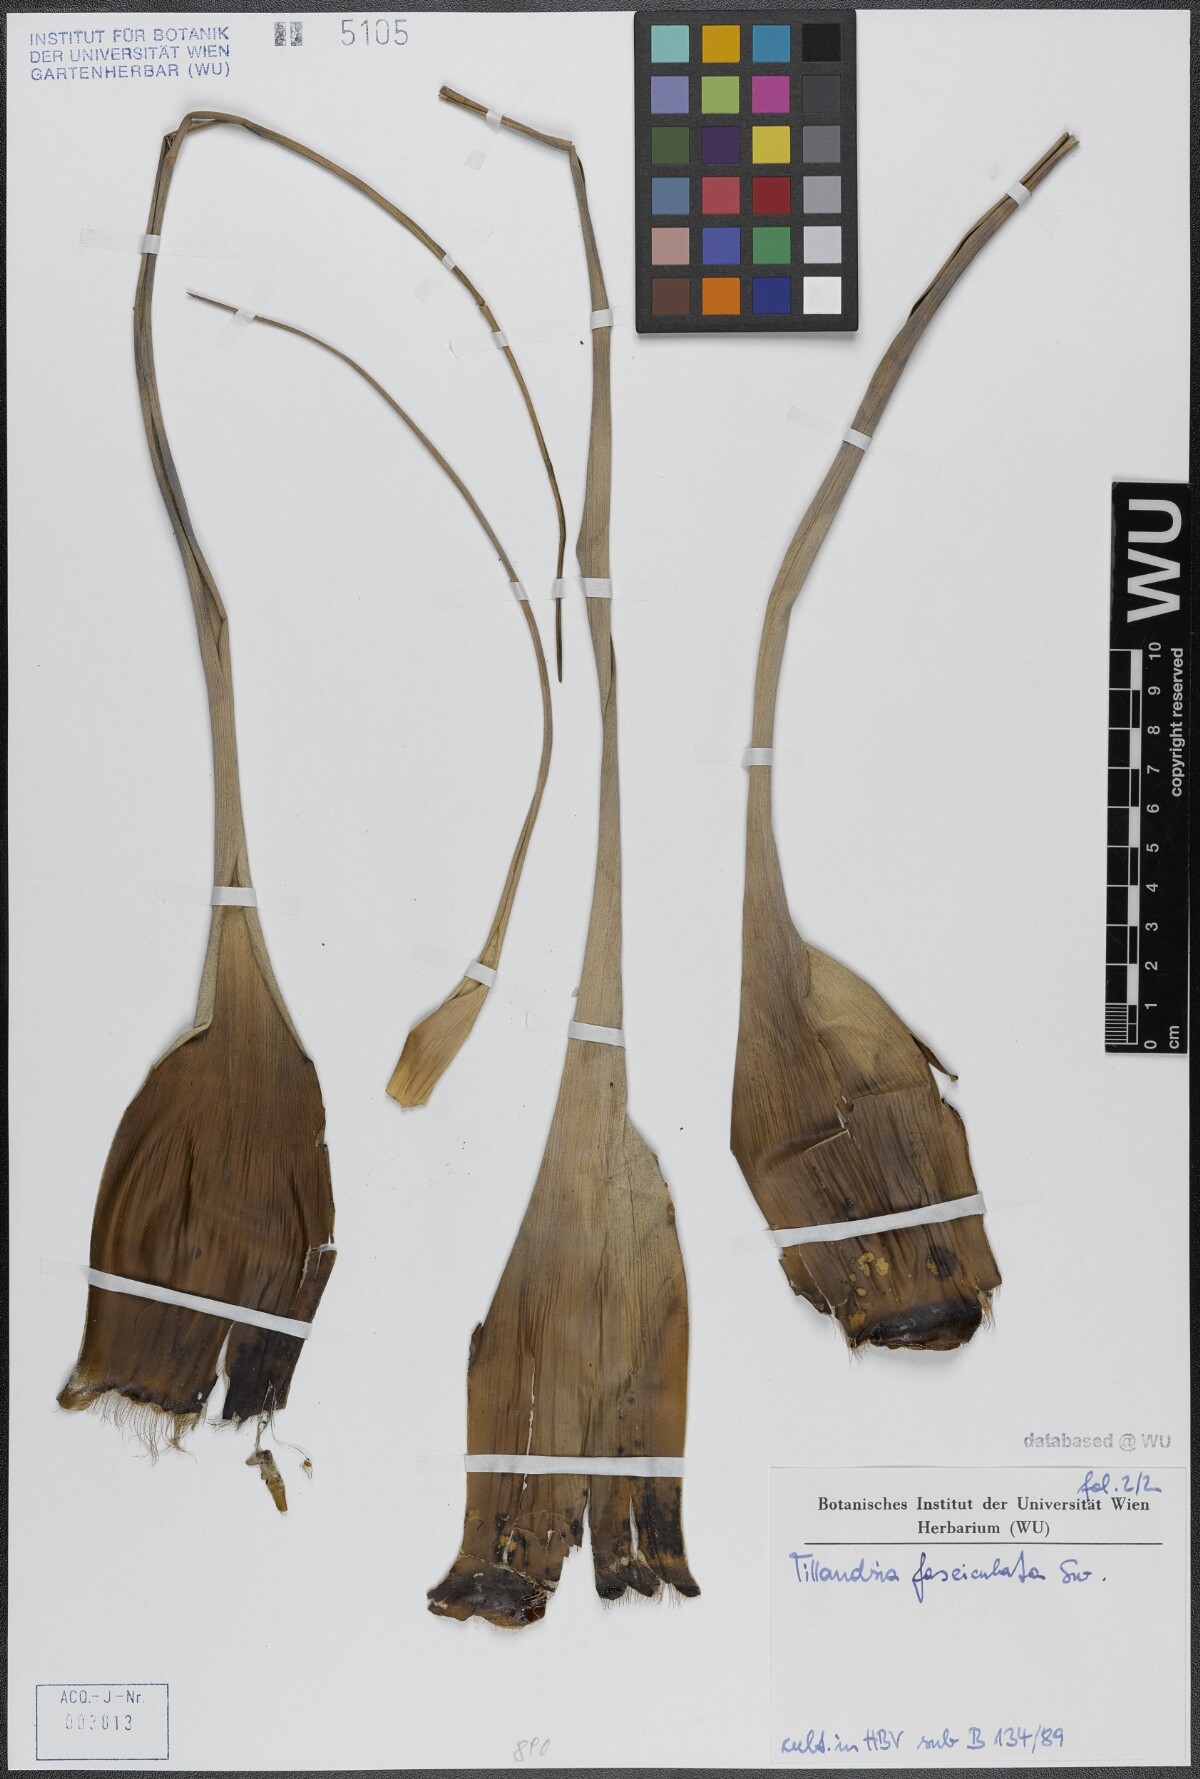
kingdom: Plantae
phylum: Tracheophyta
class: Liliopsida
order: Poales
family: Bromeliaceae
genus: Tillandsia
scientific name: Tillandsia fasciculata
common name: Giant airplant
